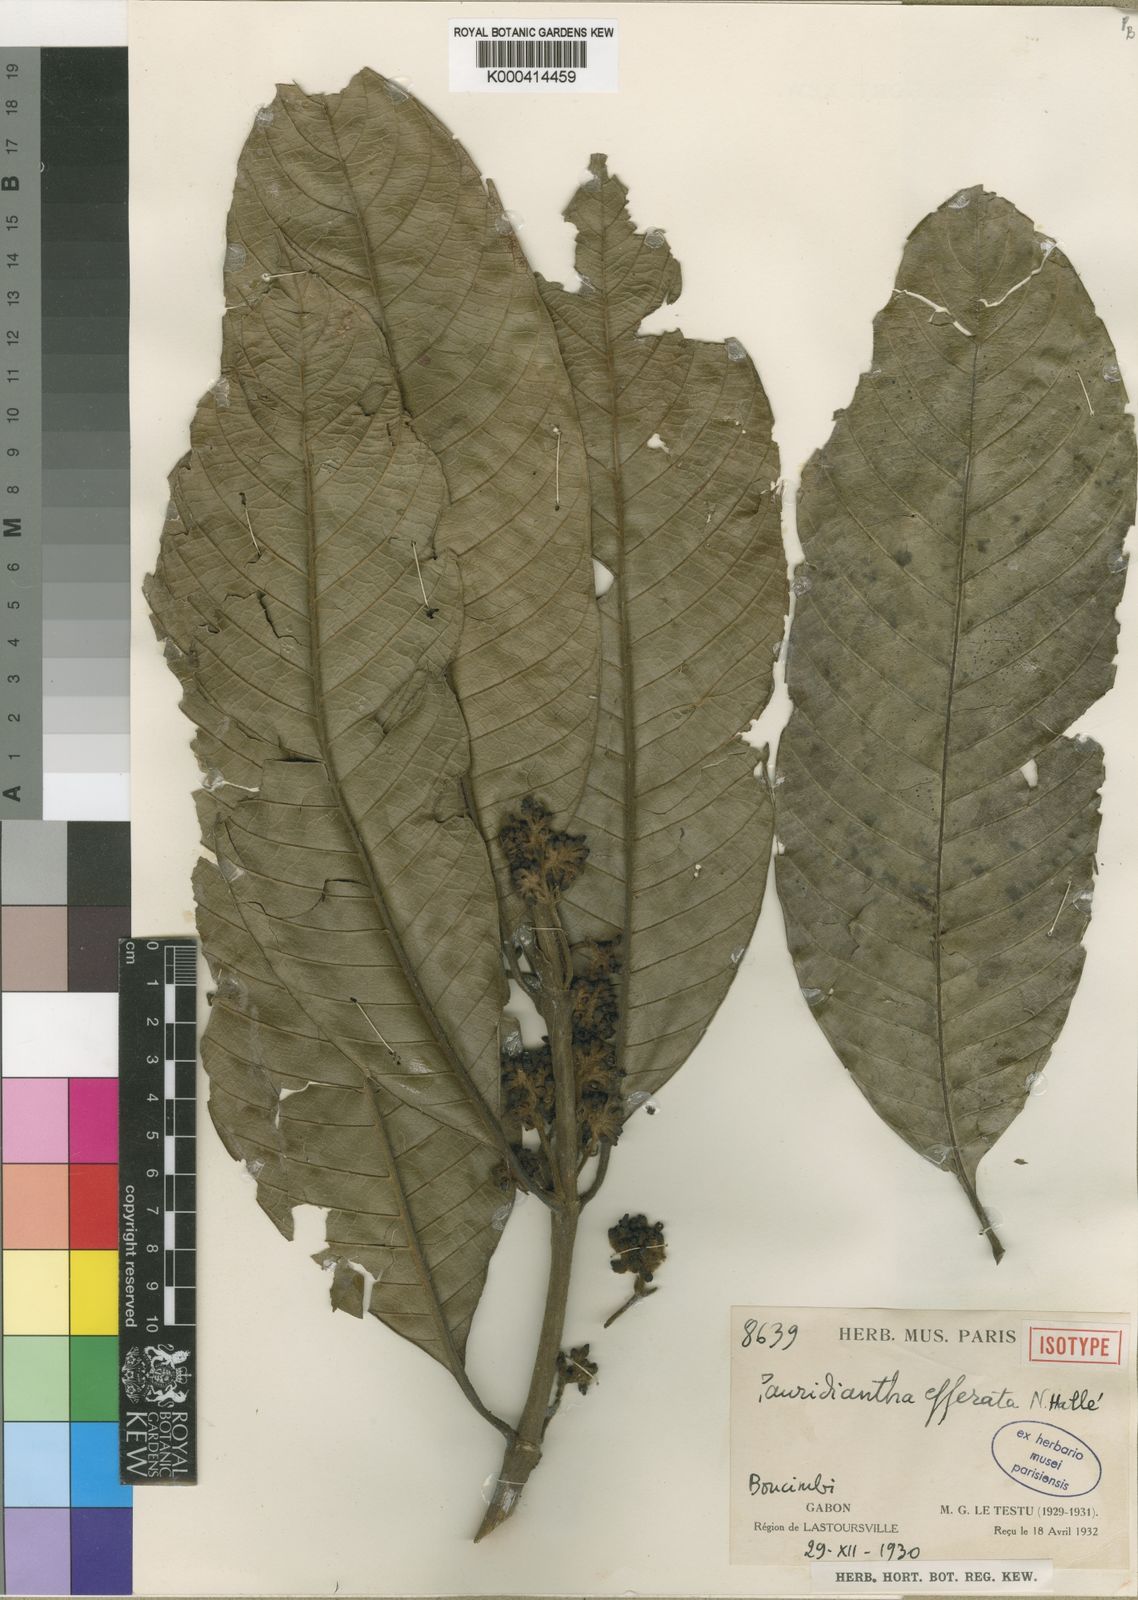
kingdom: Plantae
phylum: Tracheophyta
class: Magnoliopsida
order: Gentianales
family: Rubiaceae
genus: Pauridiantha
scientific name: Pauridiantha
